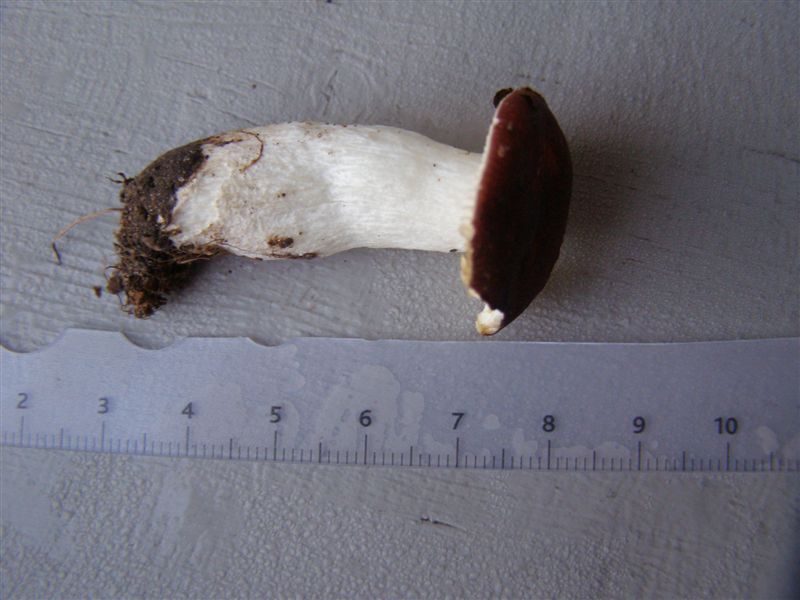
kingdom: Fungi
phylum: Basidiomycota
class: Agaricomycetes
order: Russulales
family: Russulaceae
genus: Russula
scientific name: Russula laccata
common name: klit-skørhat
